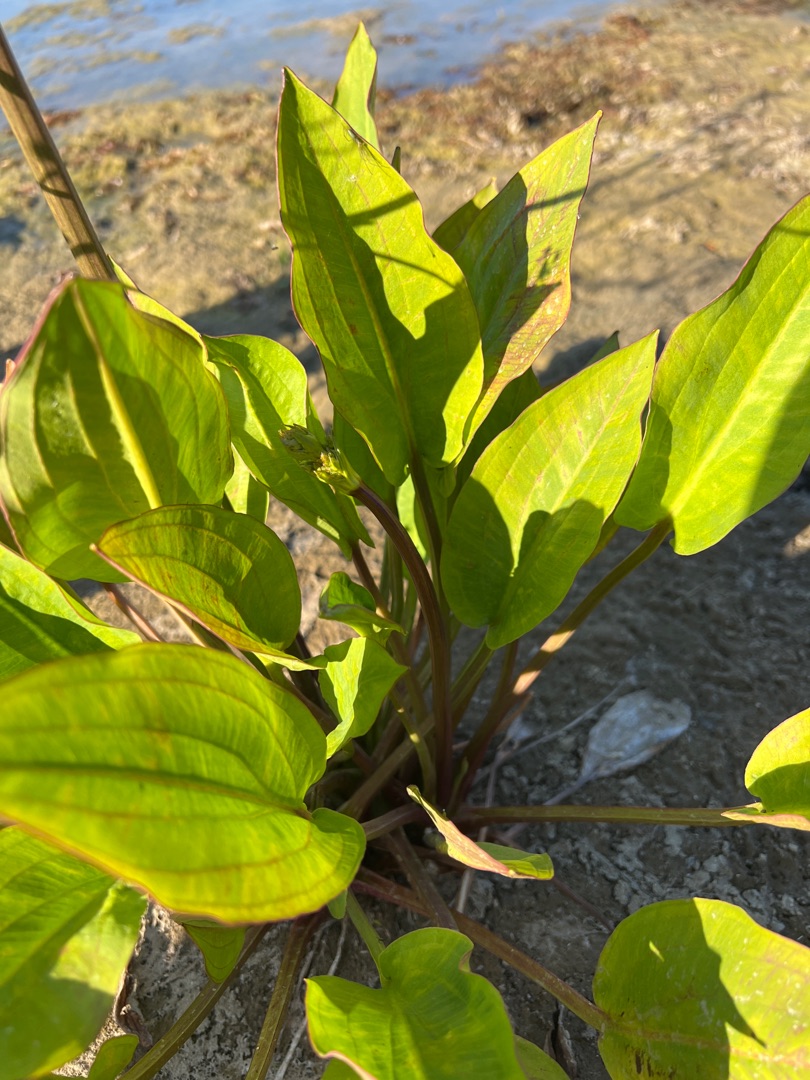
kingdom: Plantae
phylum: Tracheophyta
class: Liliopsida
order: Alismatales
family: Alismataceae
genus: Alisma
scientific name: Alisma plantago-aquatica
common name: Vejbred-skeblad
